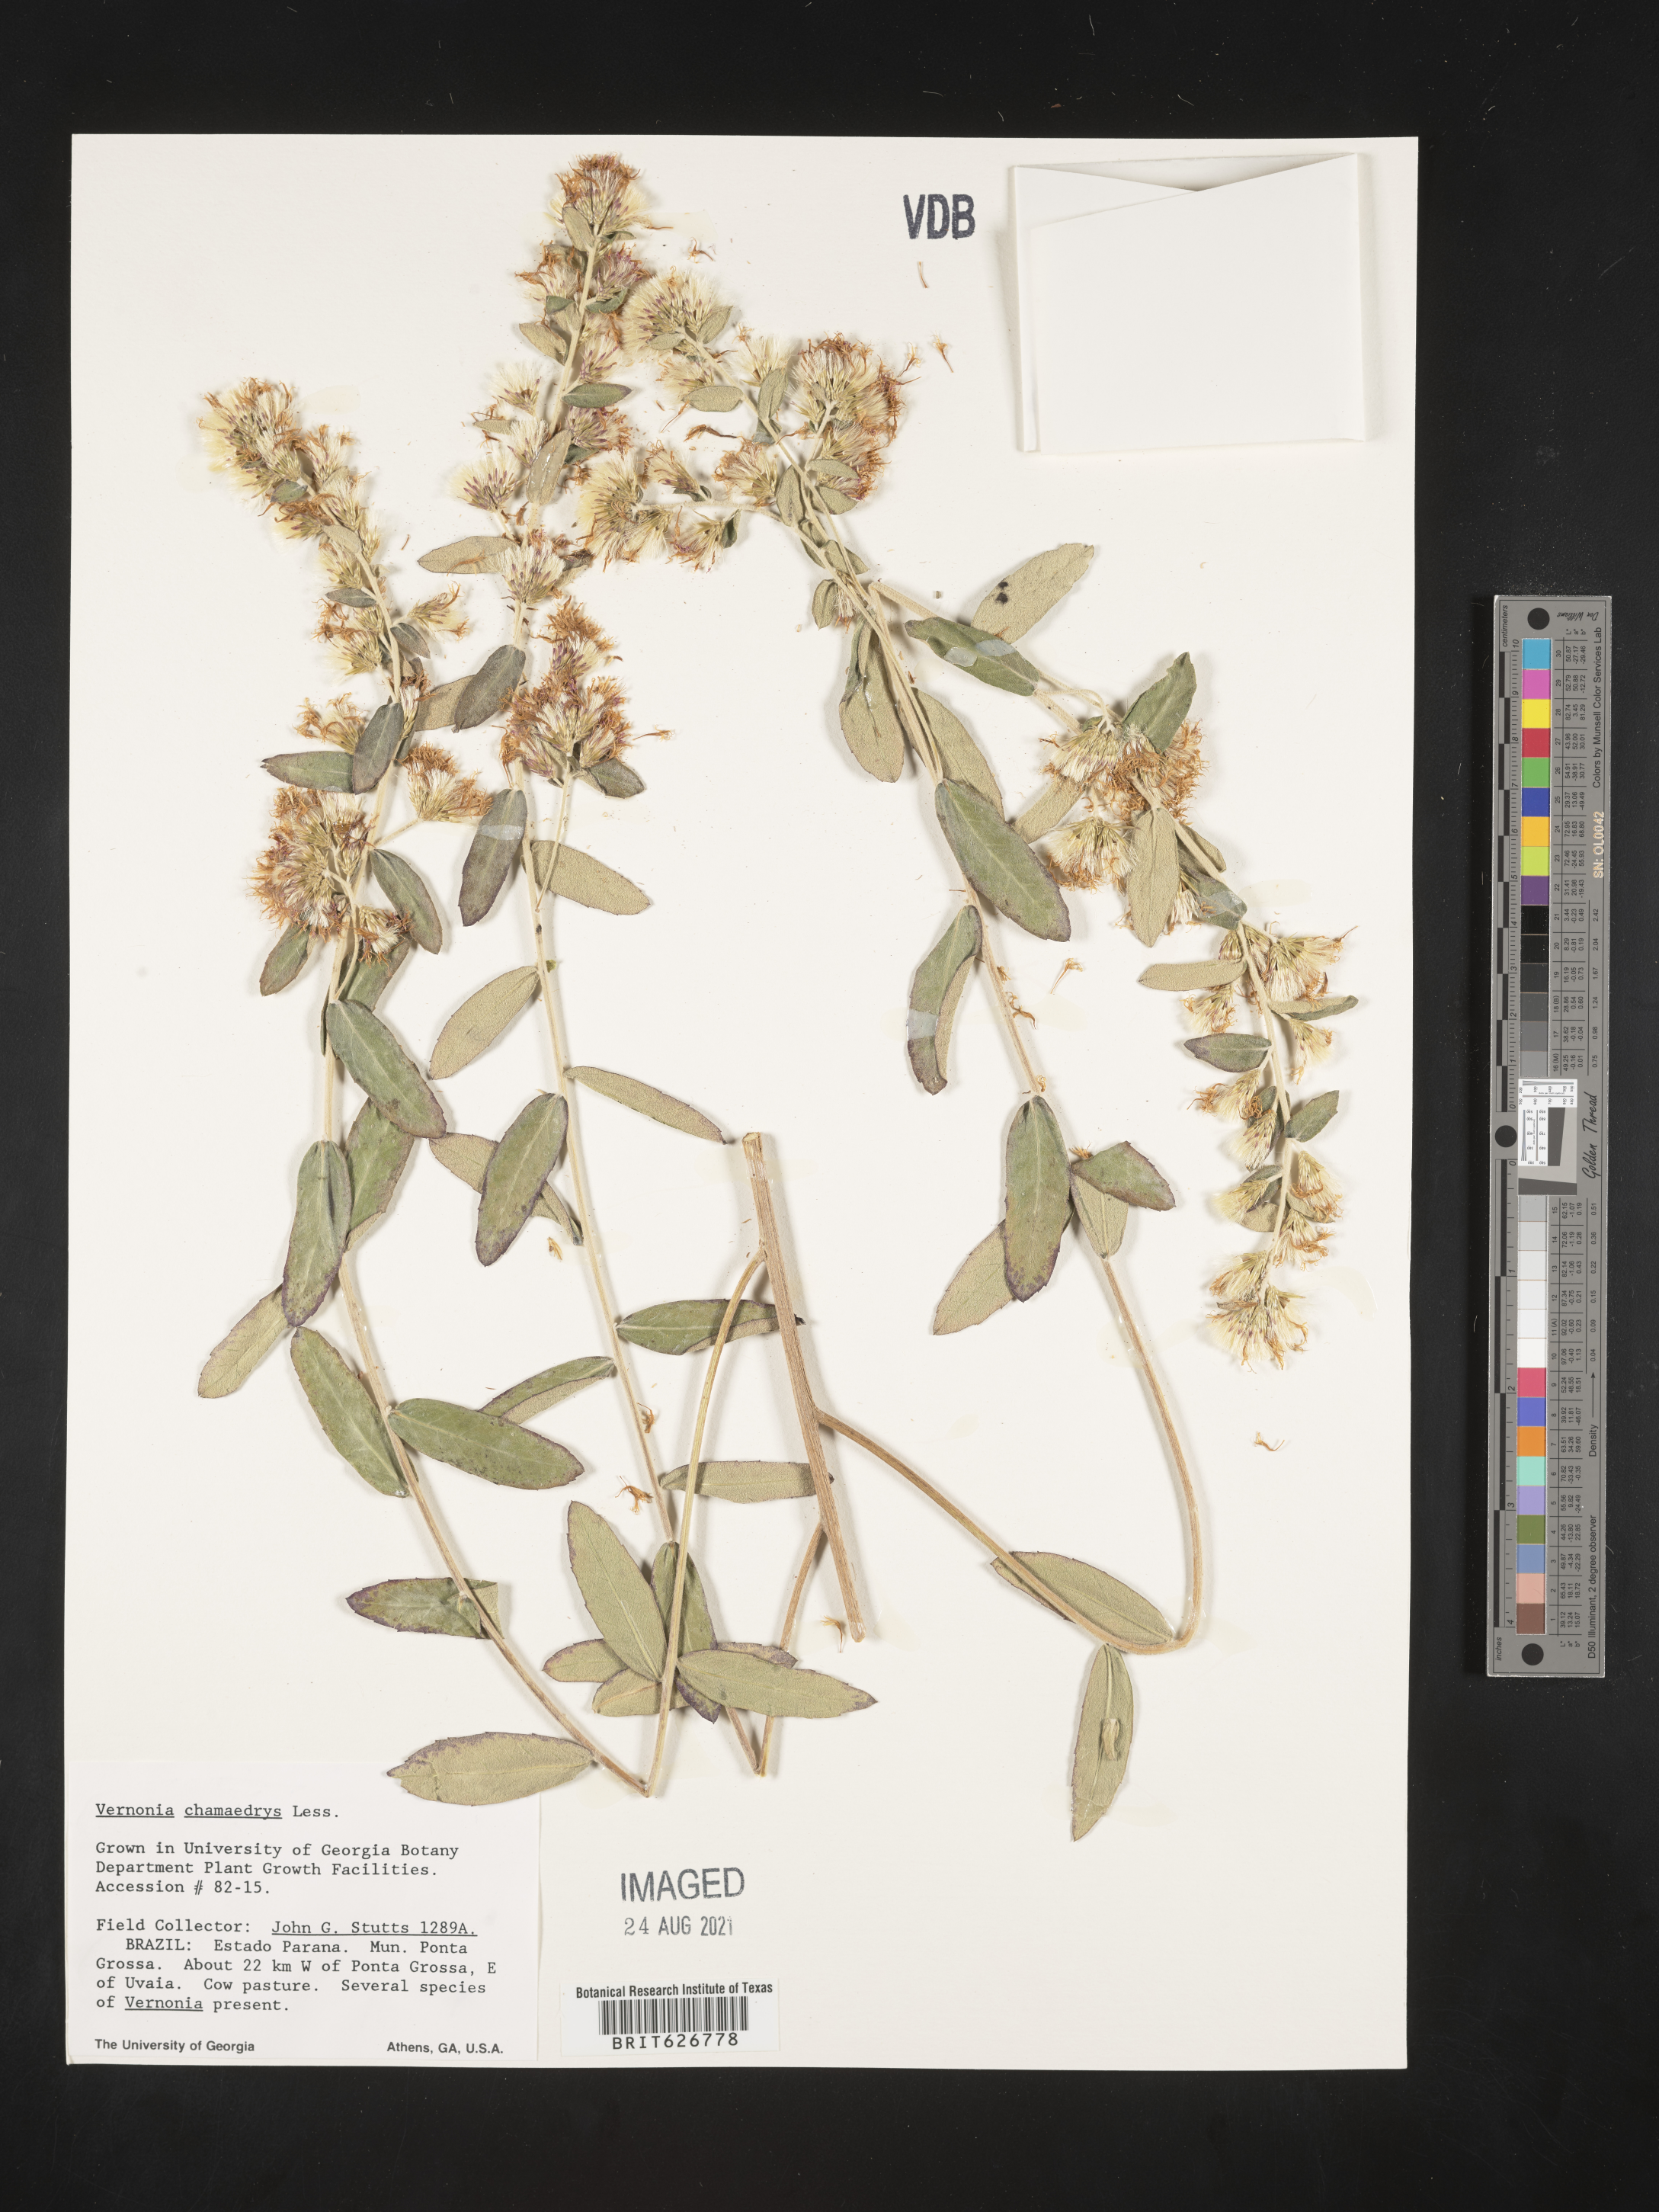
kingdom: Plantae
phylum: Tracheophyta
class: Magnoliopsida
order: Asterales
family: Asteraceae
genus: Vernonanthura
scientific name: Vernonanthura chamaedrys
